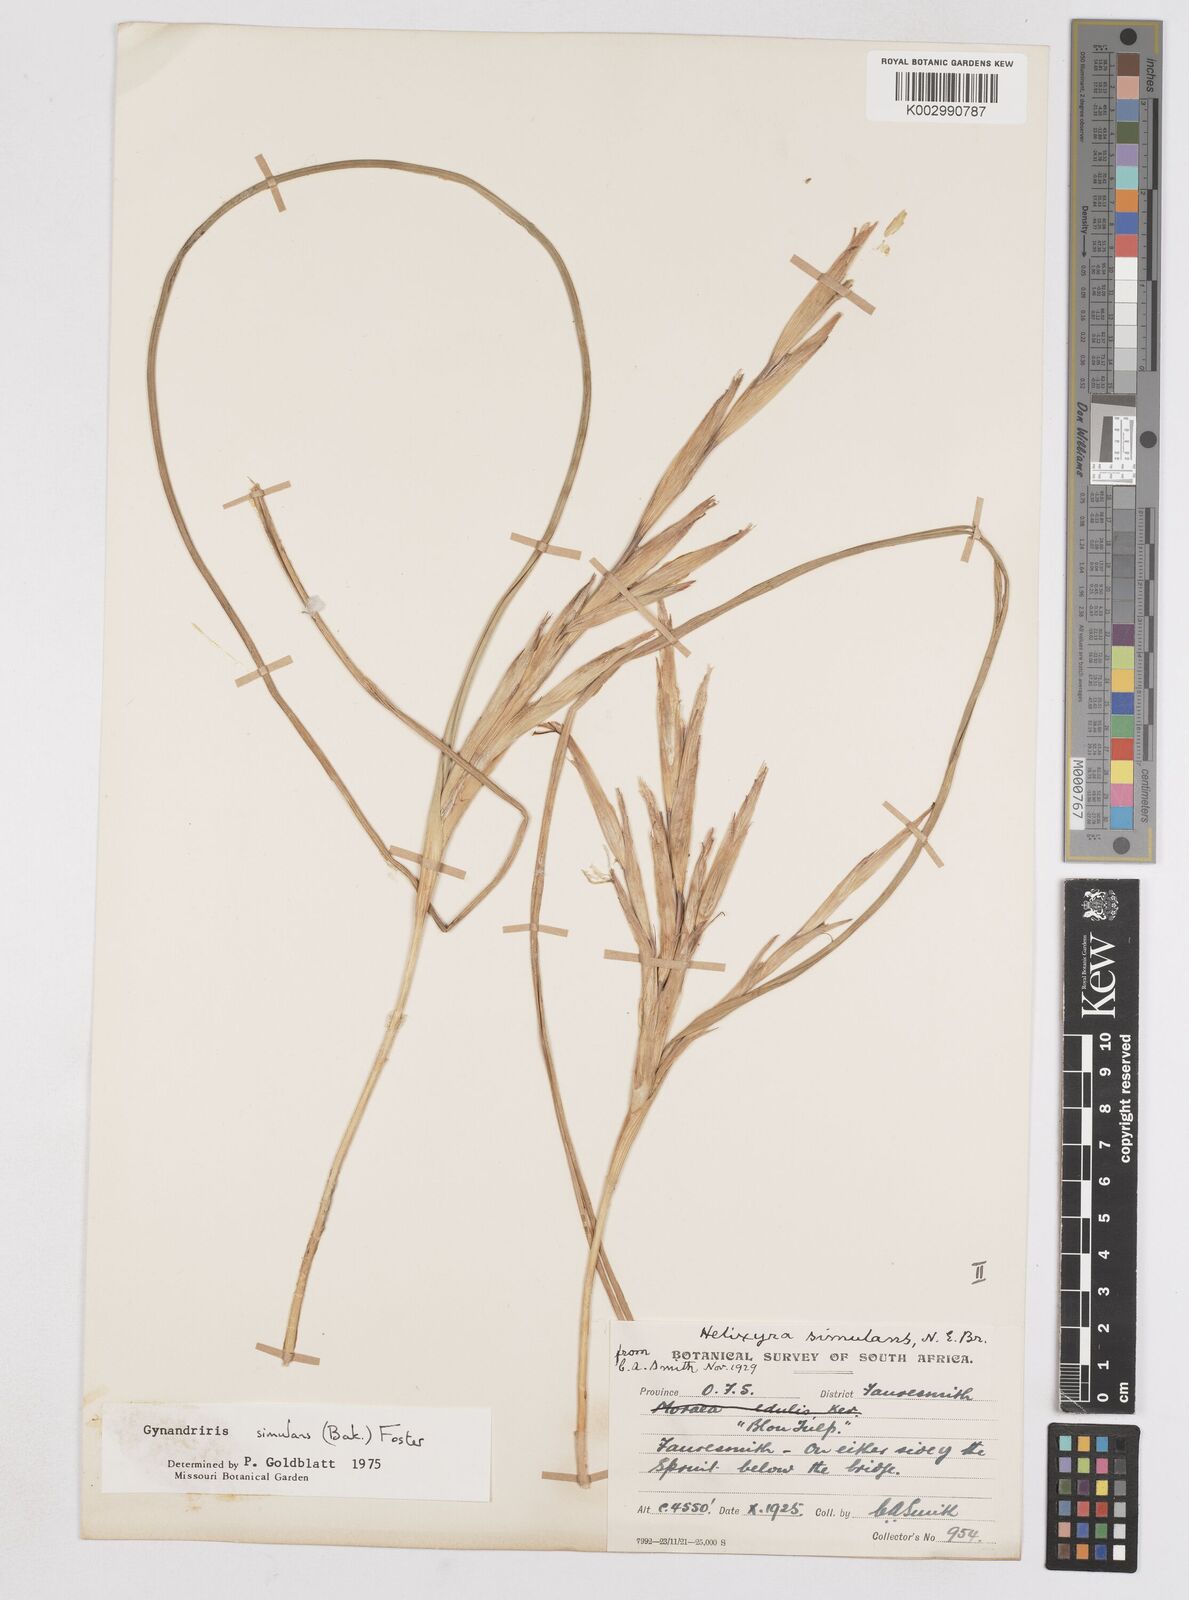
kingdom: Plantae
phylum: Tracheophyta
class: Liliopsida
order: Asparagales
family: Iridaceae
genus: Moraea
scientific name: Moraea simulans
